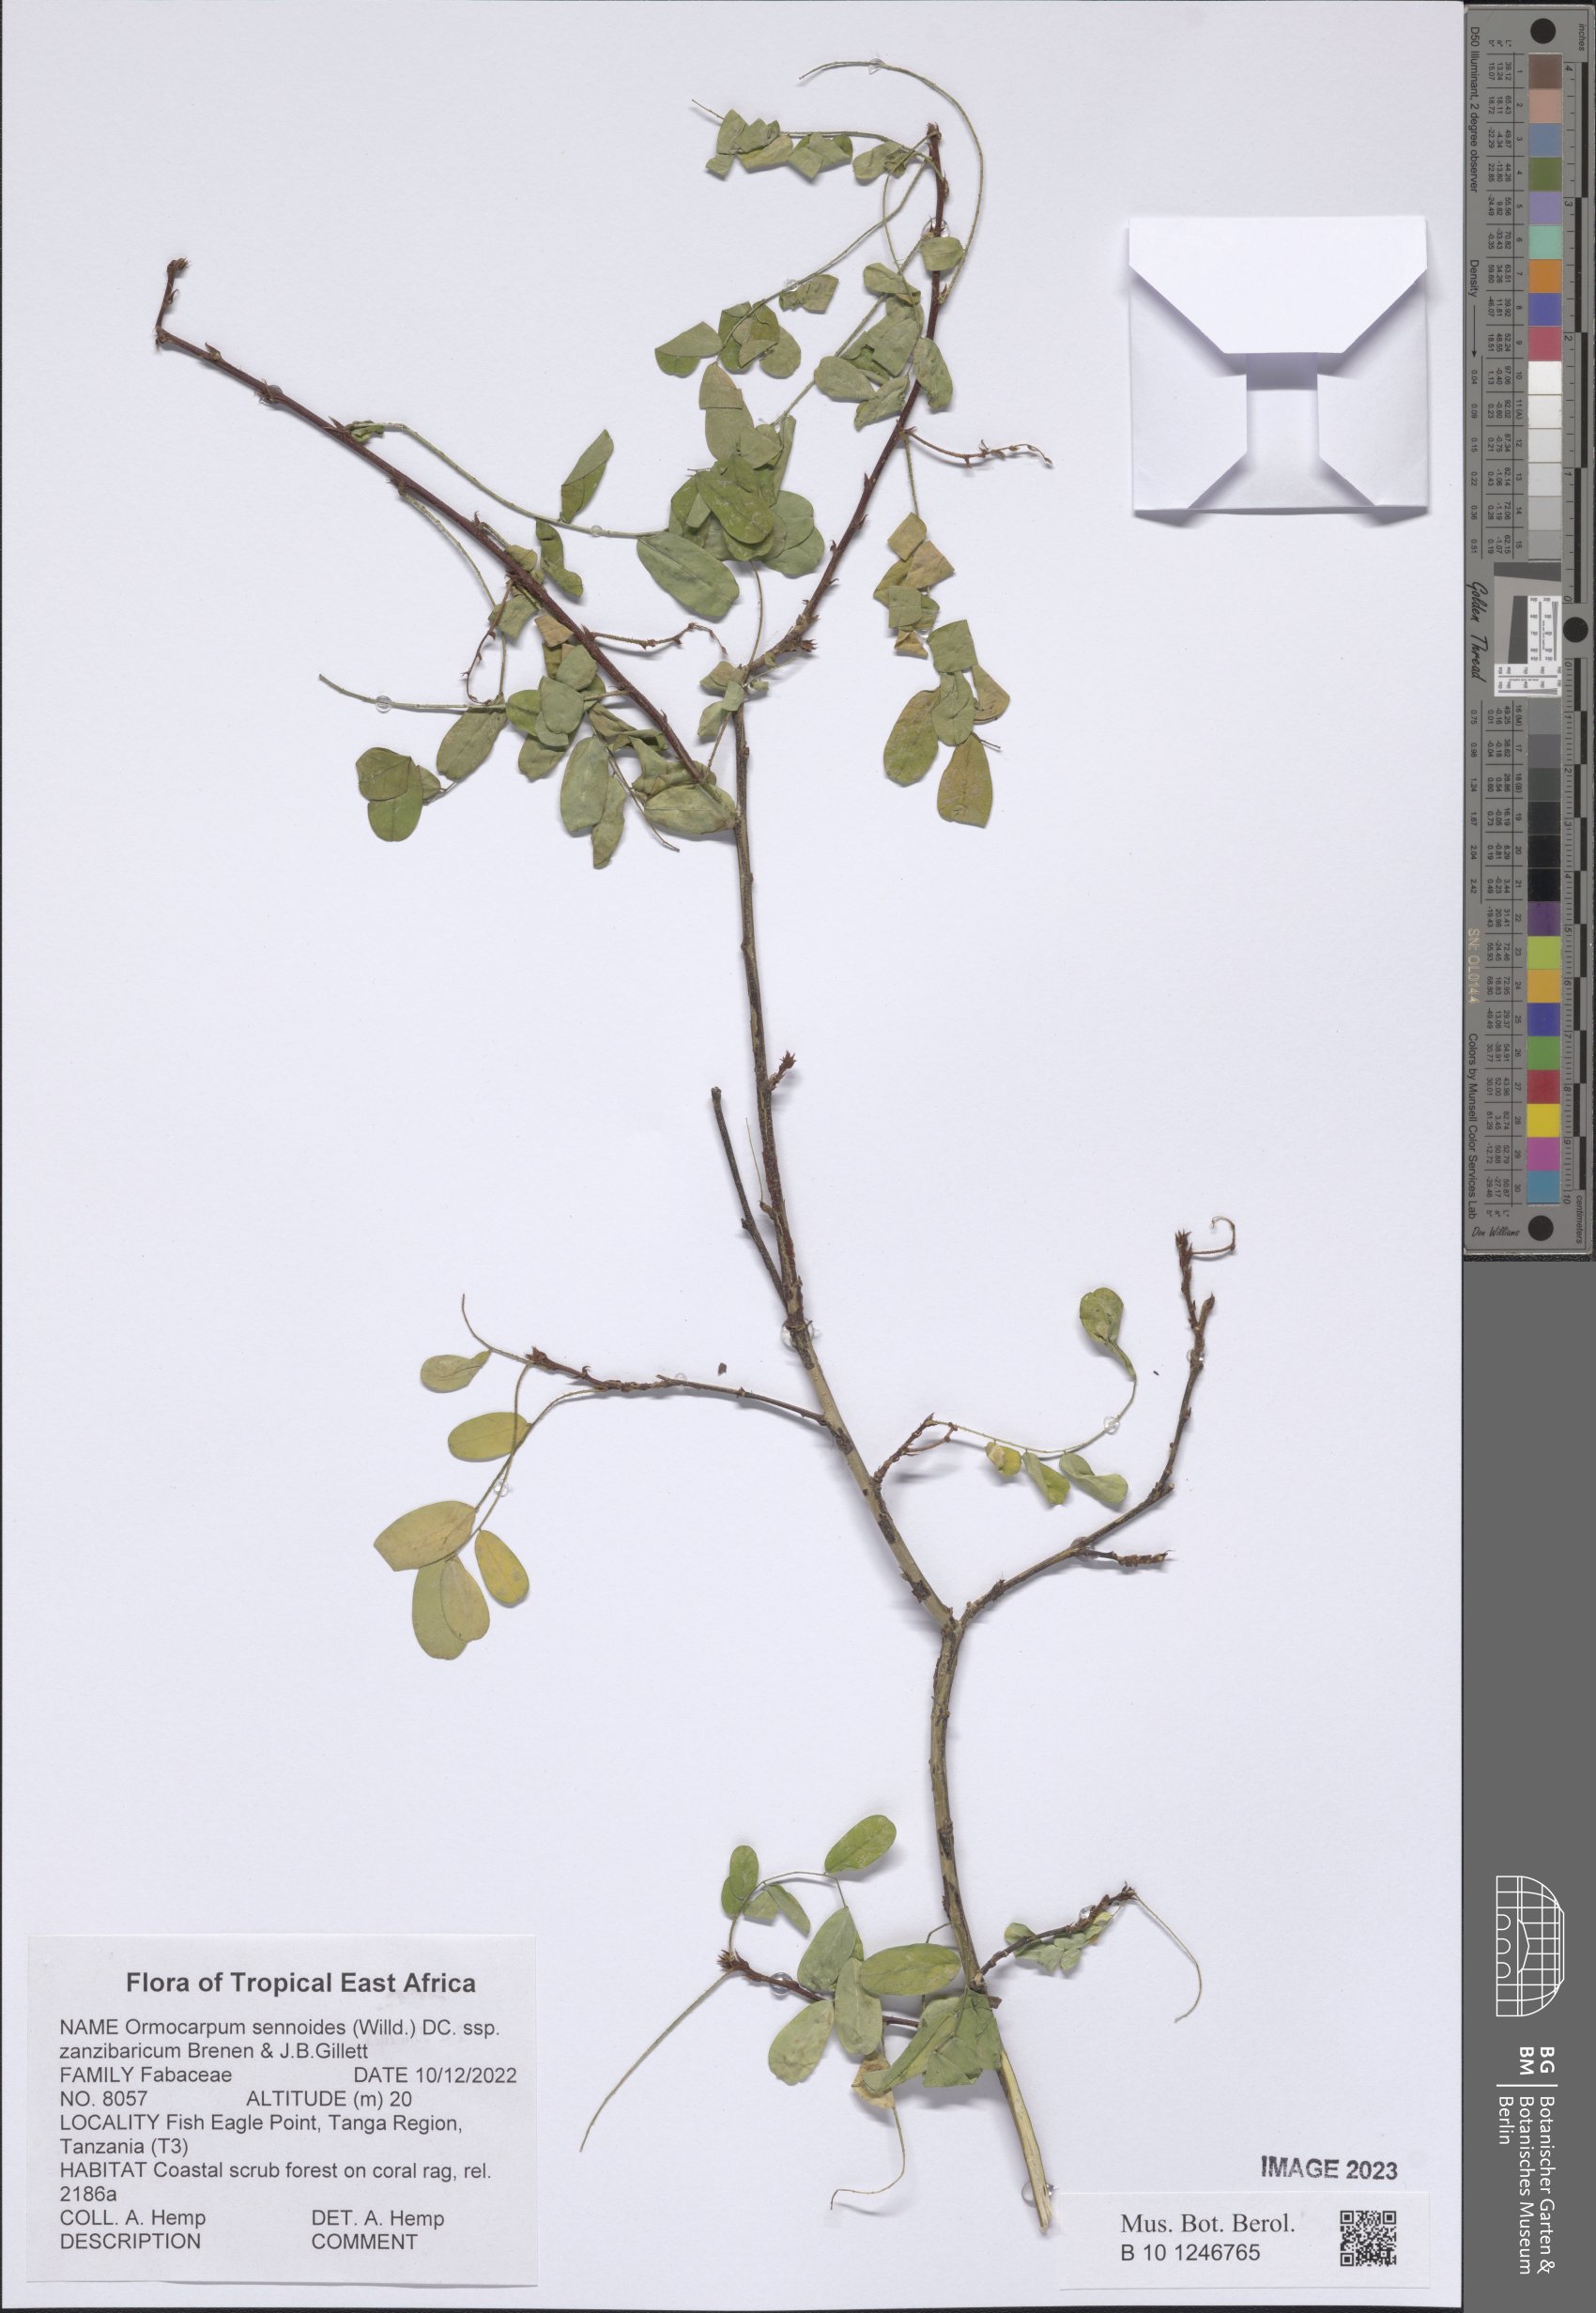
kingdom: Plantae
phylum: Tracheophyta
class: Magnoliopsida
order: Fabales
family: Fabaceae
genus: Ormocarpum
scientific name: Ormocarpum sennoides
